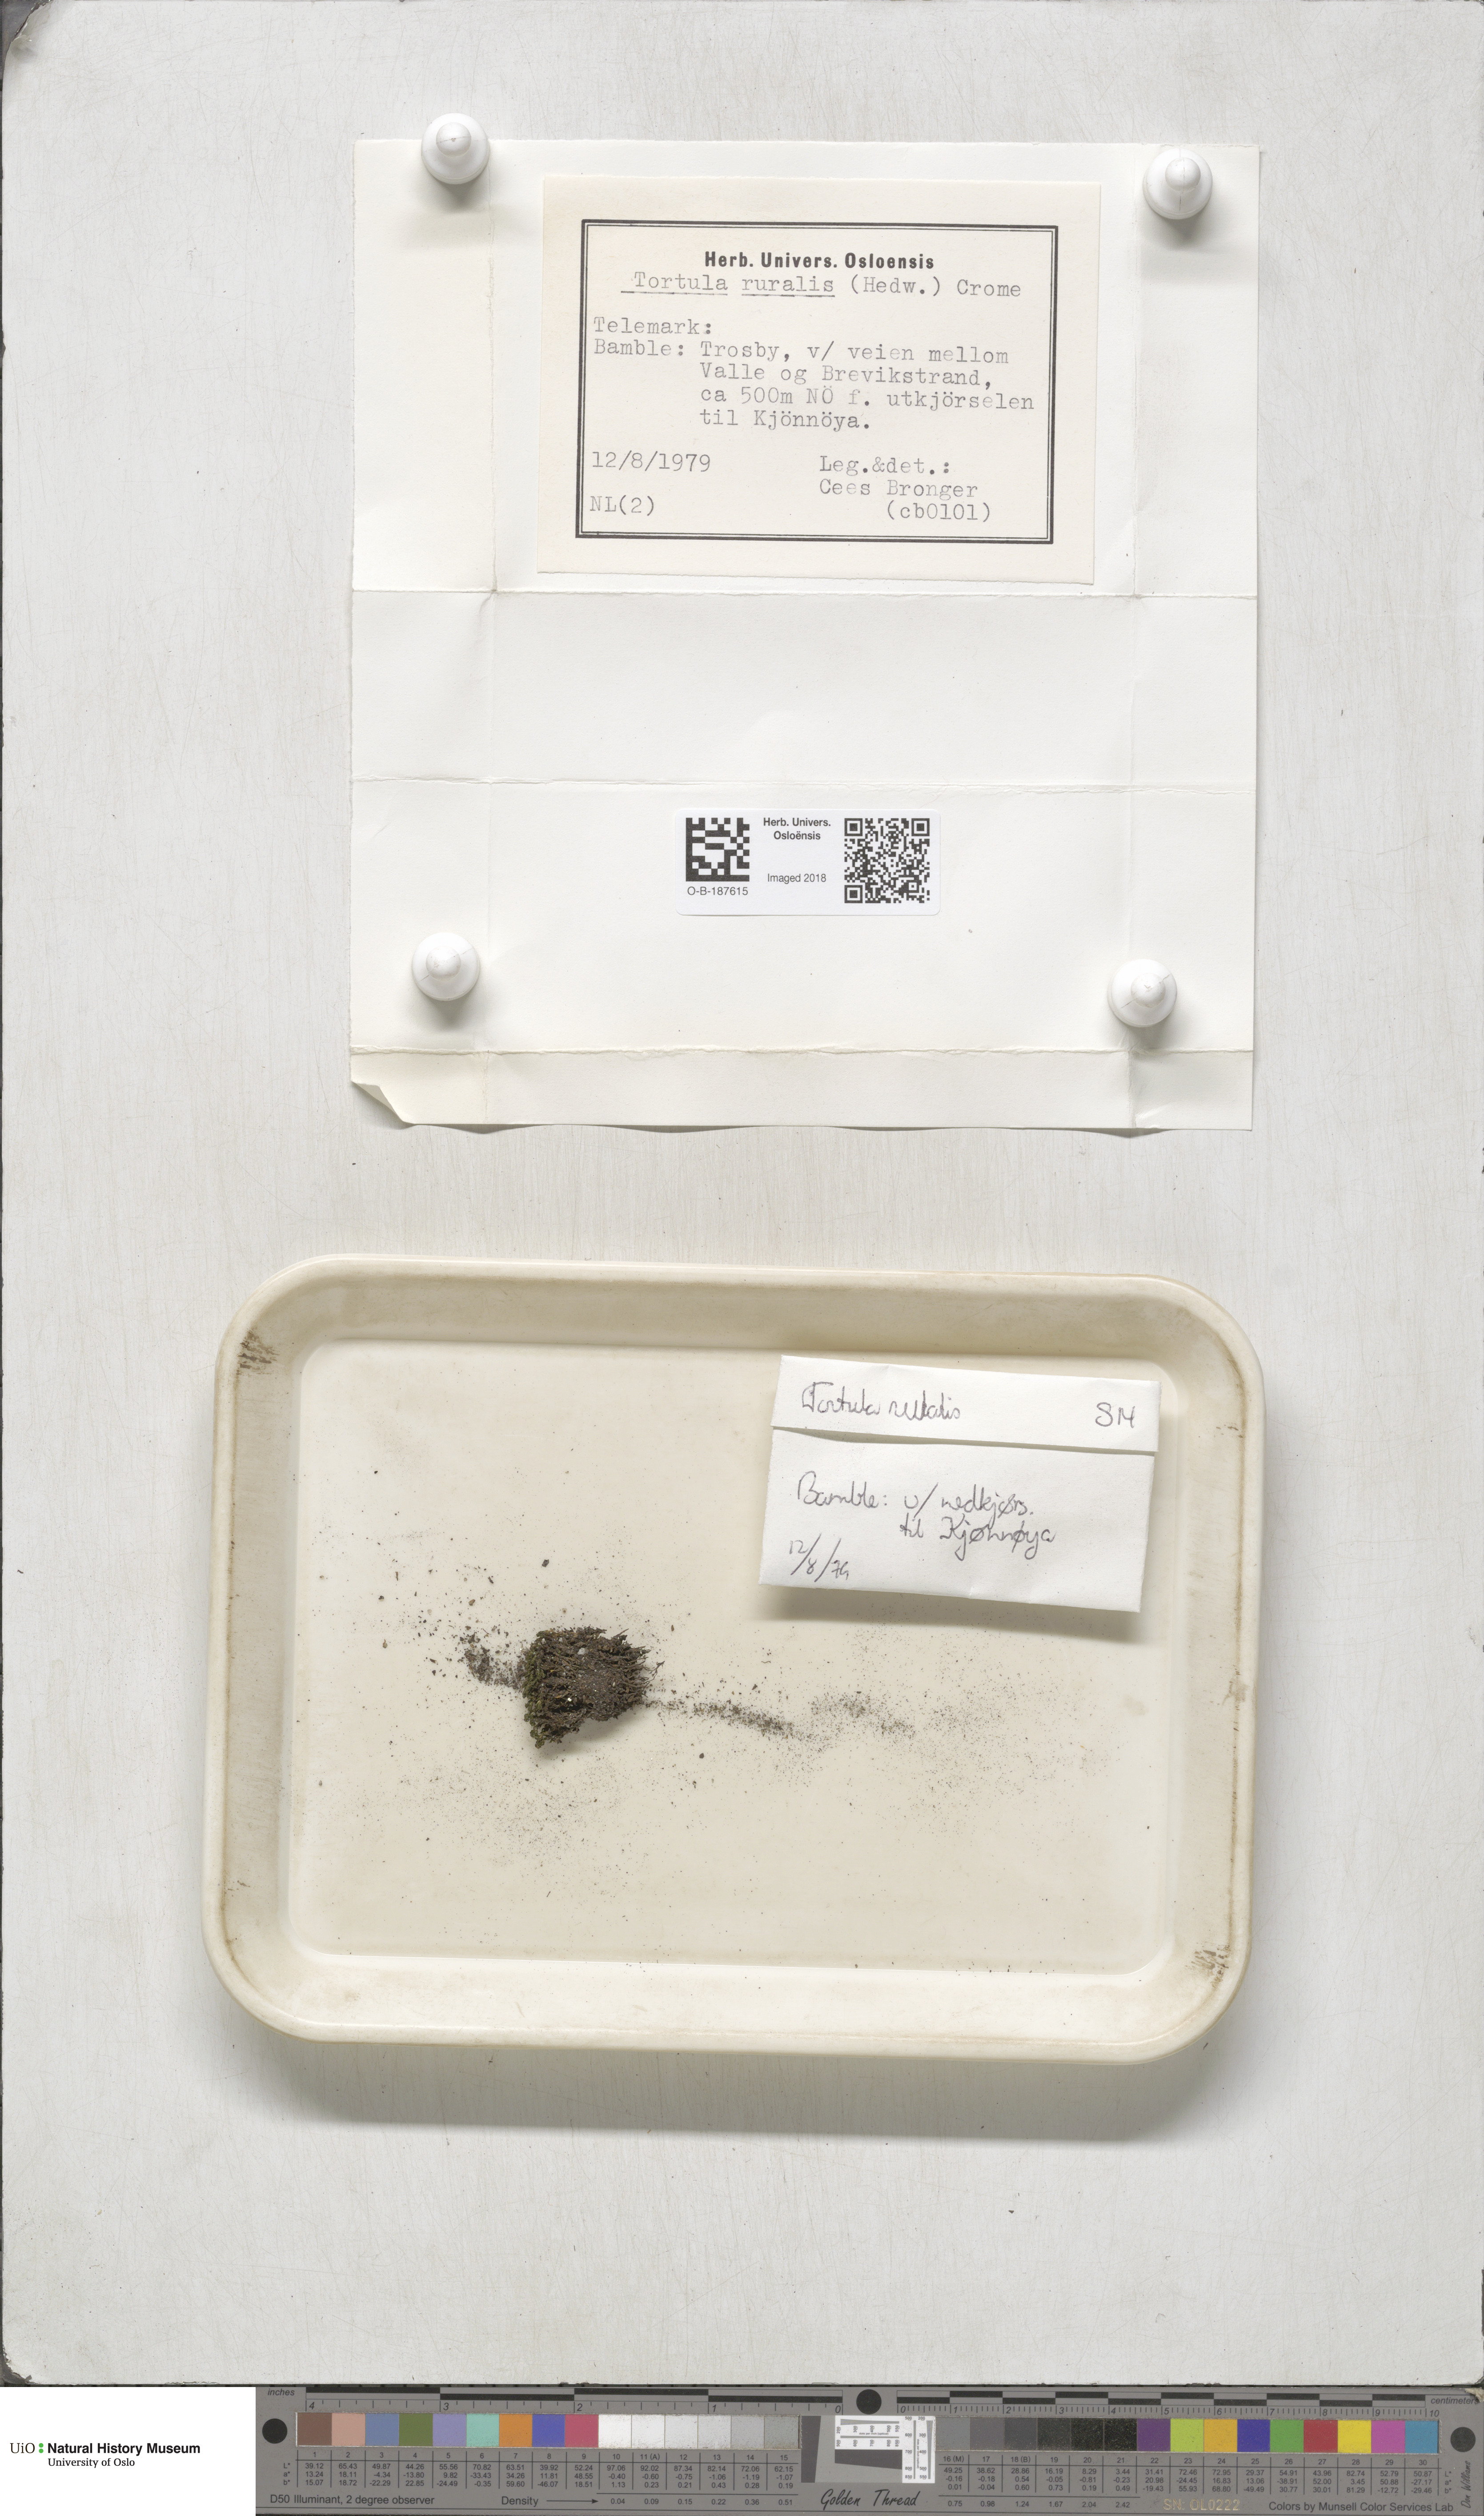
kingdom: Plantae
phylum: Bryophyta
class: Bryopsida
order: Pottiales
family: Pottiaceae
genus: Syntrichia
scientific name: Syntrichia ruralis
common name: Sidewalk screw moss
